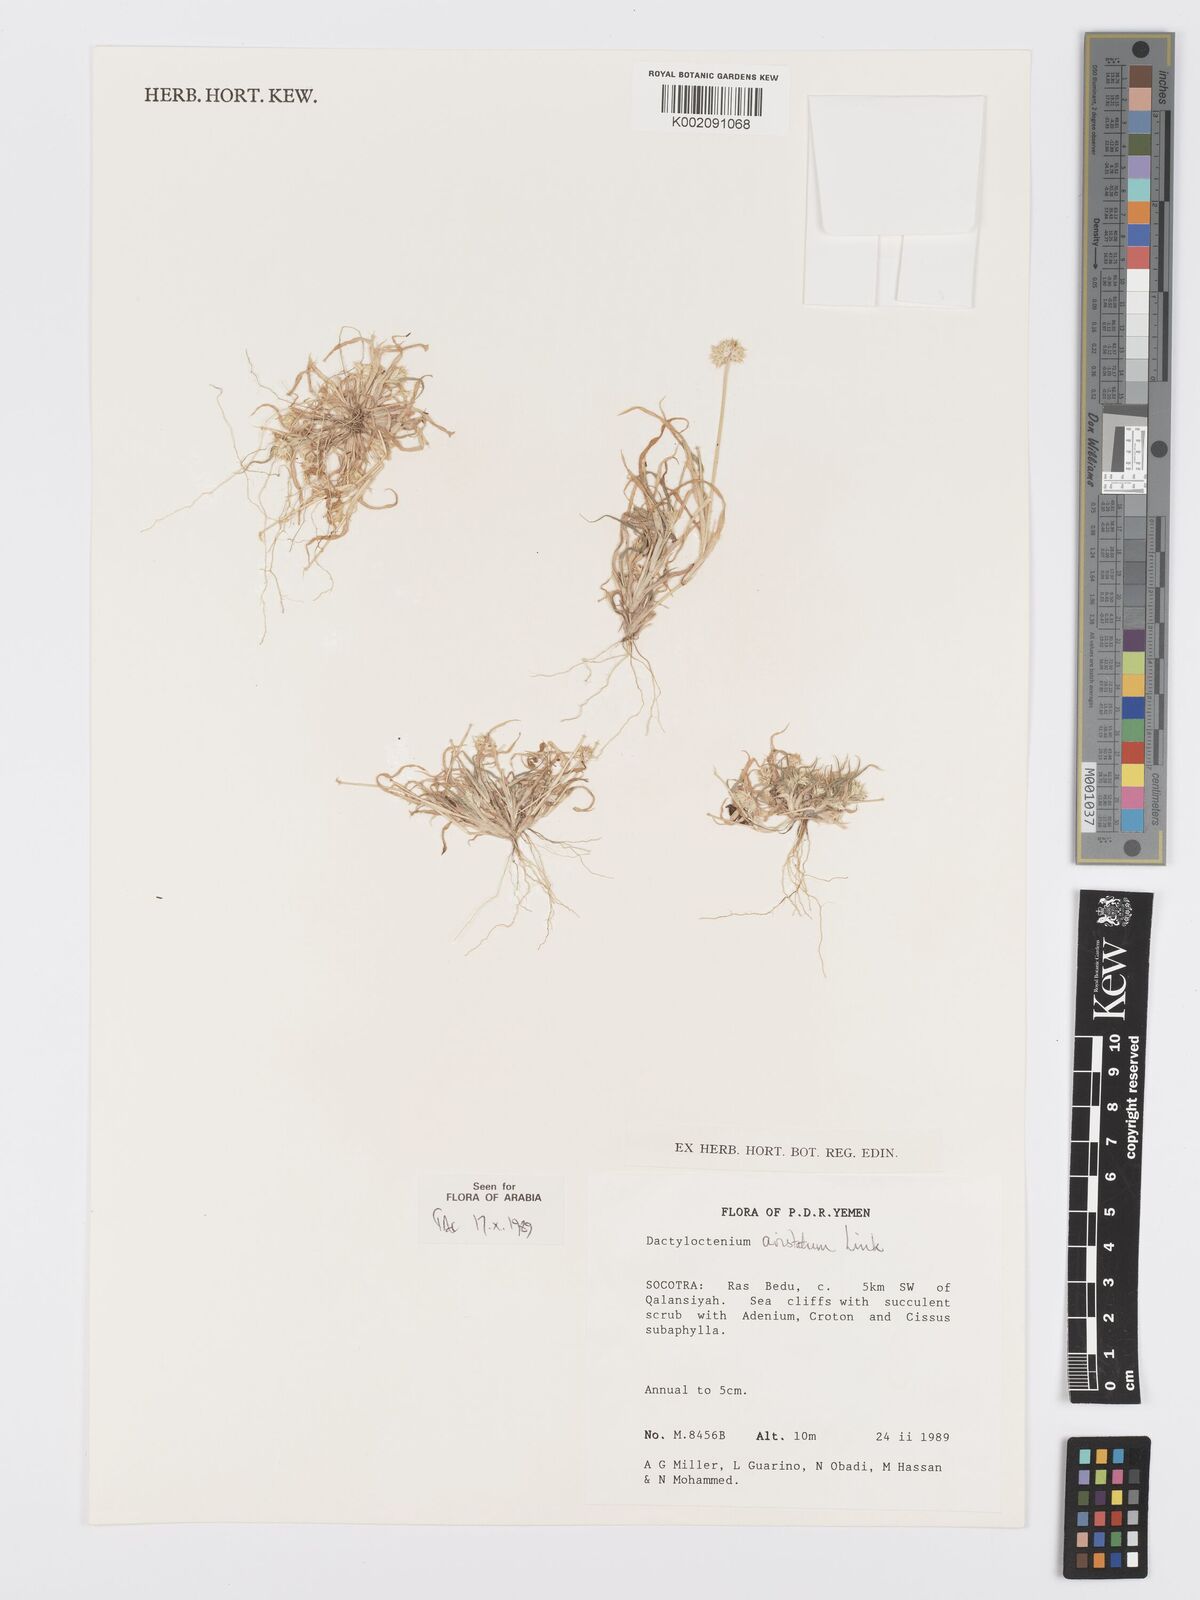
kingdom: Plantae
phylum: Tracheophyta
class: Liliopsida
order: Poales
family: Poaceae
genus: Dactyloctenium
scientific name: Dactyloctenium aristatum
